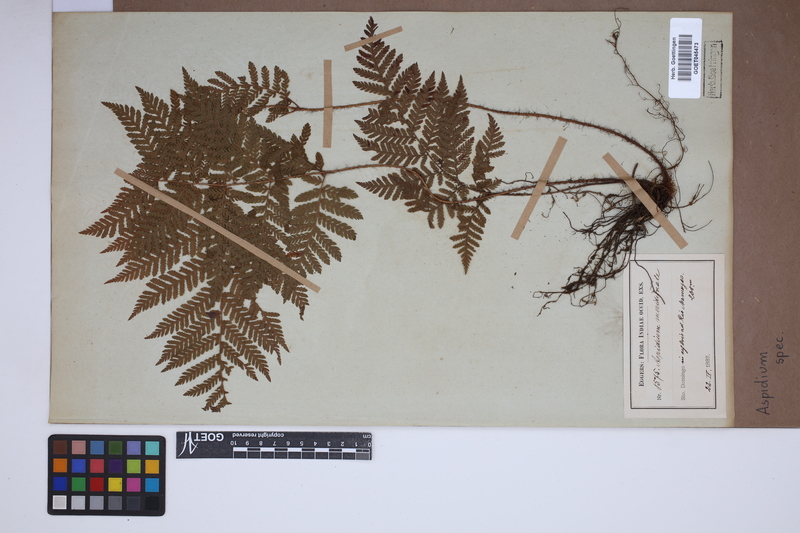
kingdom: Plantae
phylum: Tracheophyta
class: Polypodiopsida
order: Polypodiales
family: Tectariaceae
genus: Tectaria
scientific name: Tectaria Aspidium spec
